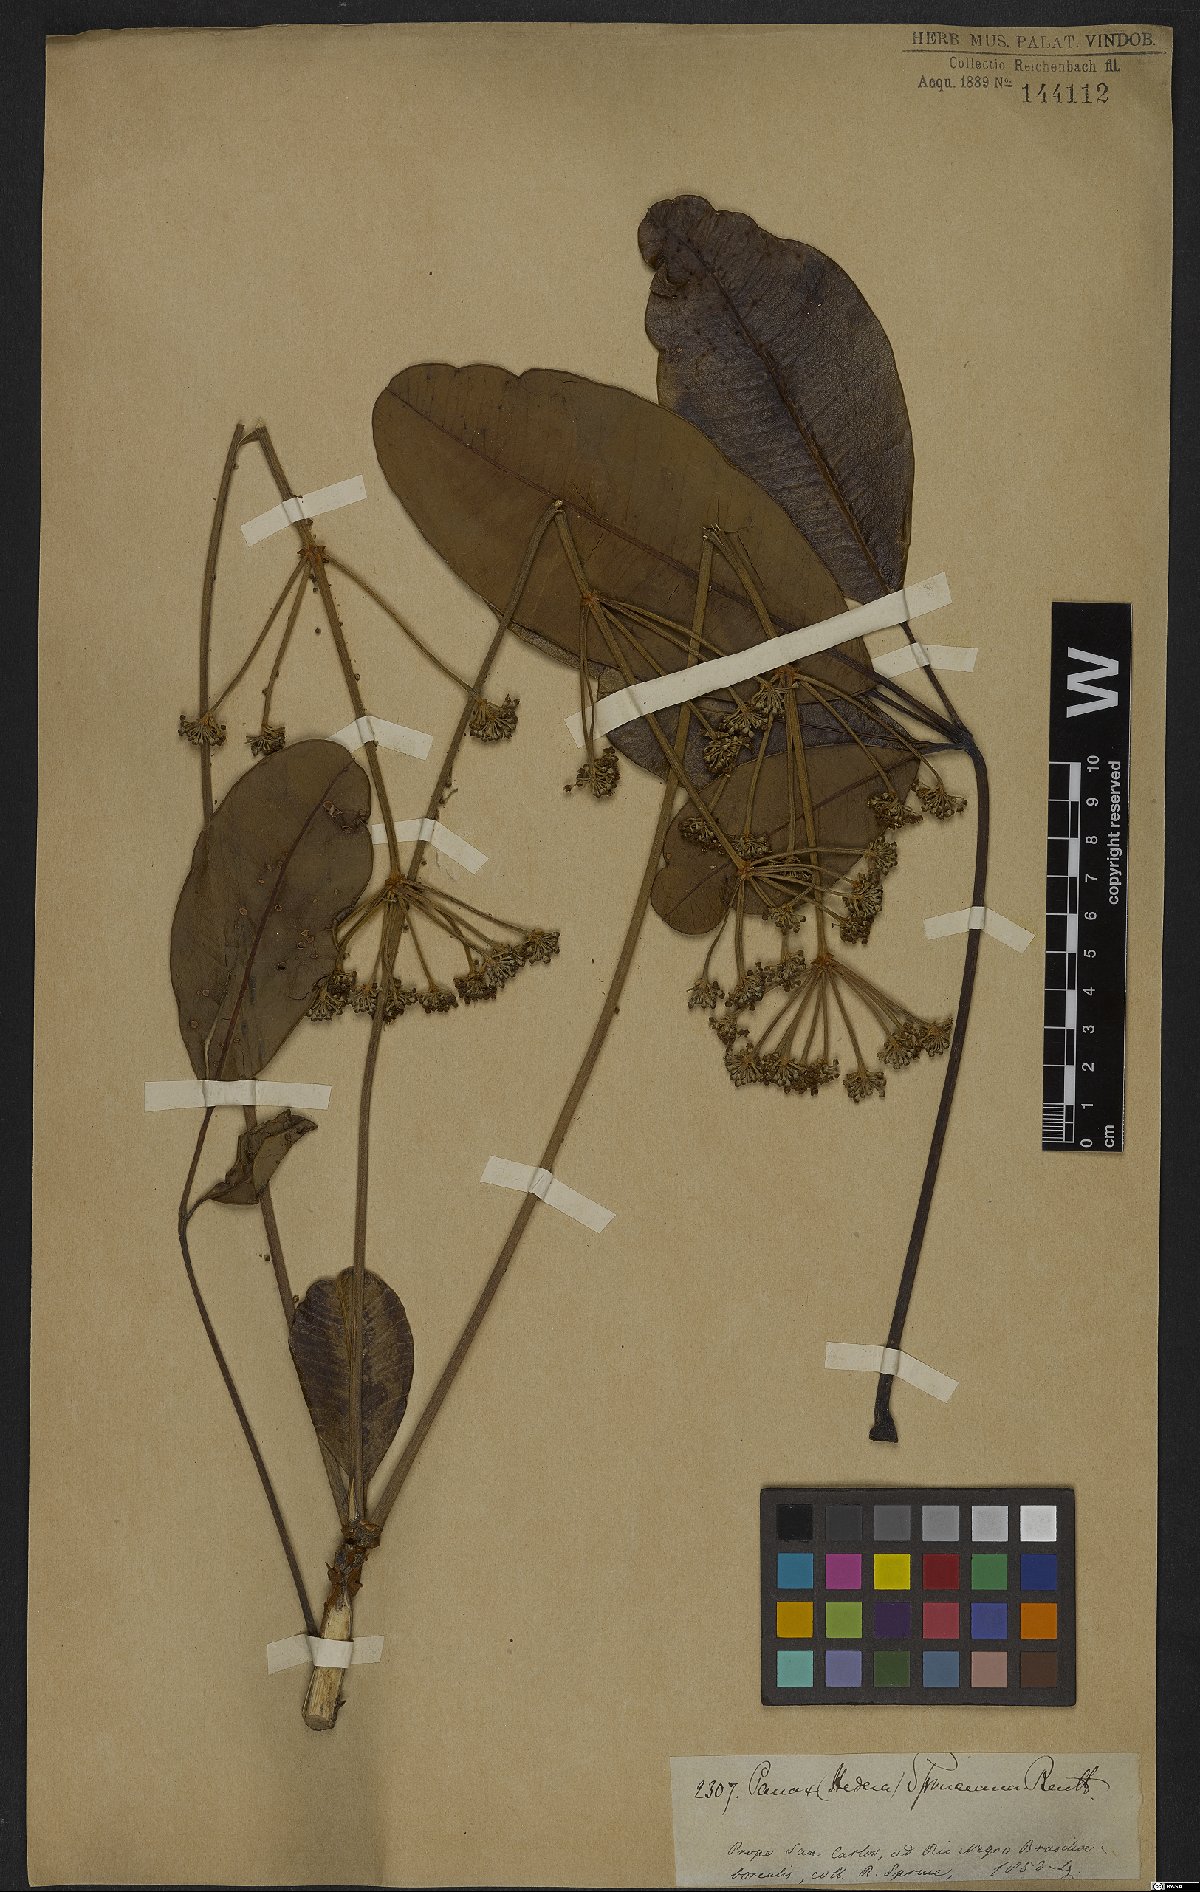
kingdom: Plantae
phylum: Tracheophyta
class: Magnoliopsida
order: Apiales
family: Araliaceae
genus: Crepinella
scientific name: Crepinella spruceana
